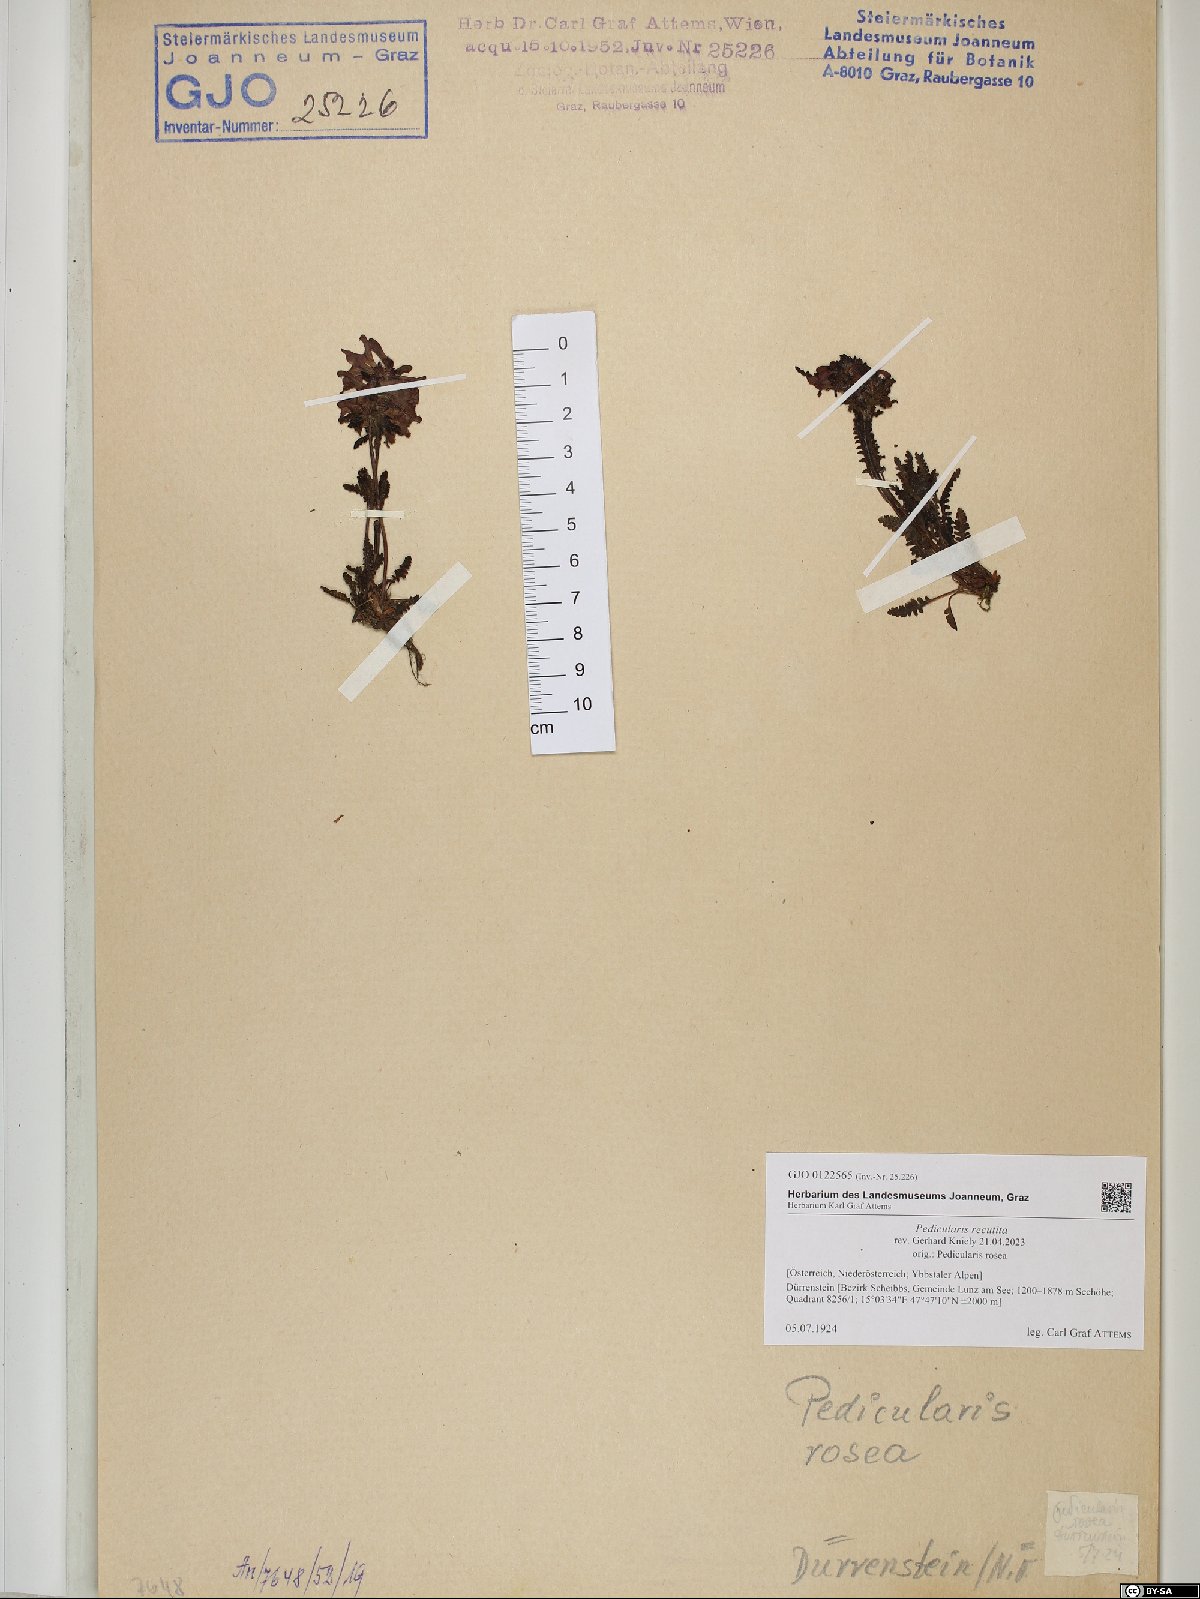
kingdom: Plantae
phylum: Tracheophyta
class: Magnoliopsida
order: Lamiales
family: Orobanchaceae
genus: Pedicularis
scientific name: Pedicularis recutita
